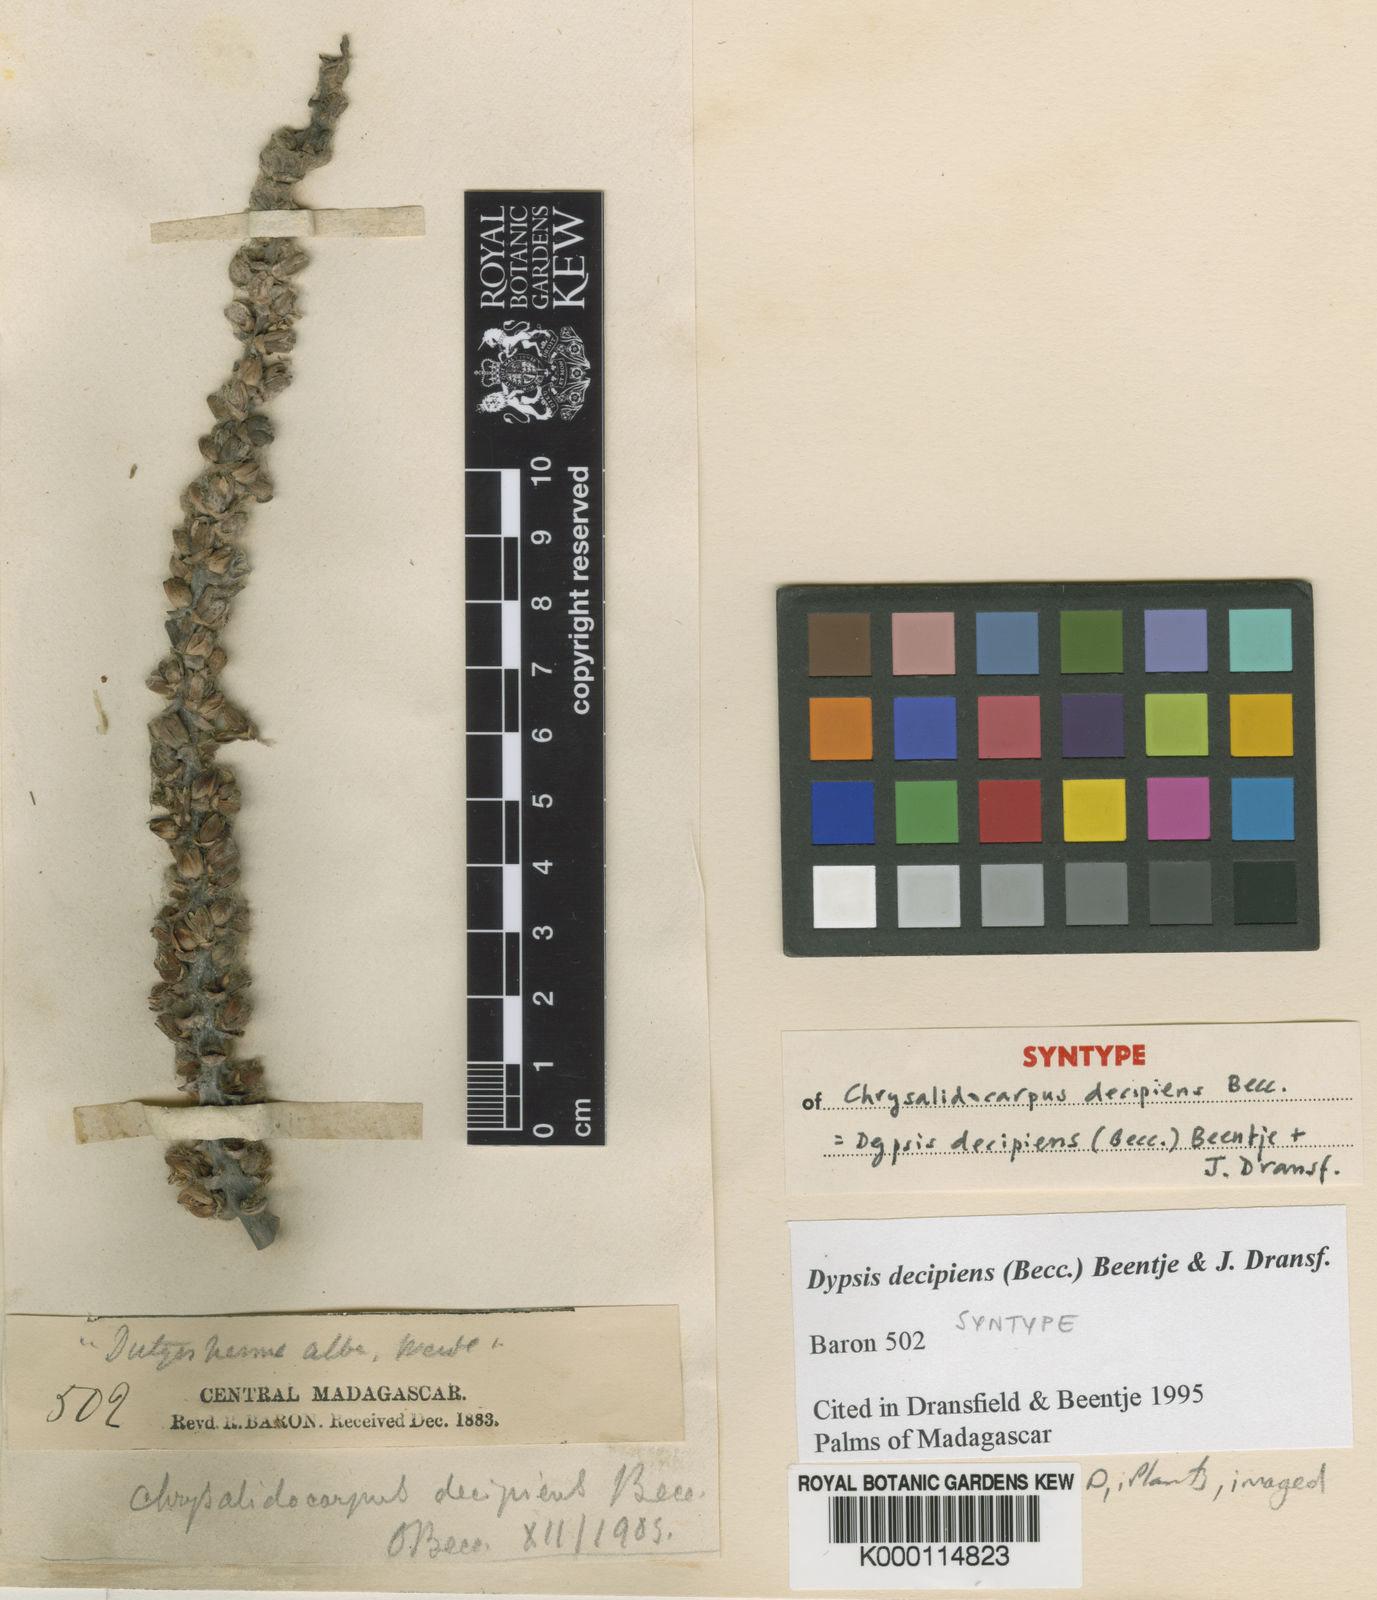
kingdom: Plantae
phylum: Tracheophyta
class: Liliopsida
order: Arecales
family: Arecaceae
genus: Dypsis
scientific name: Dypsis decipiens
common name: Manambe palm
